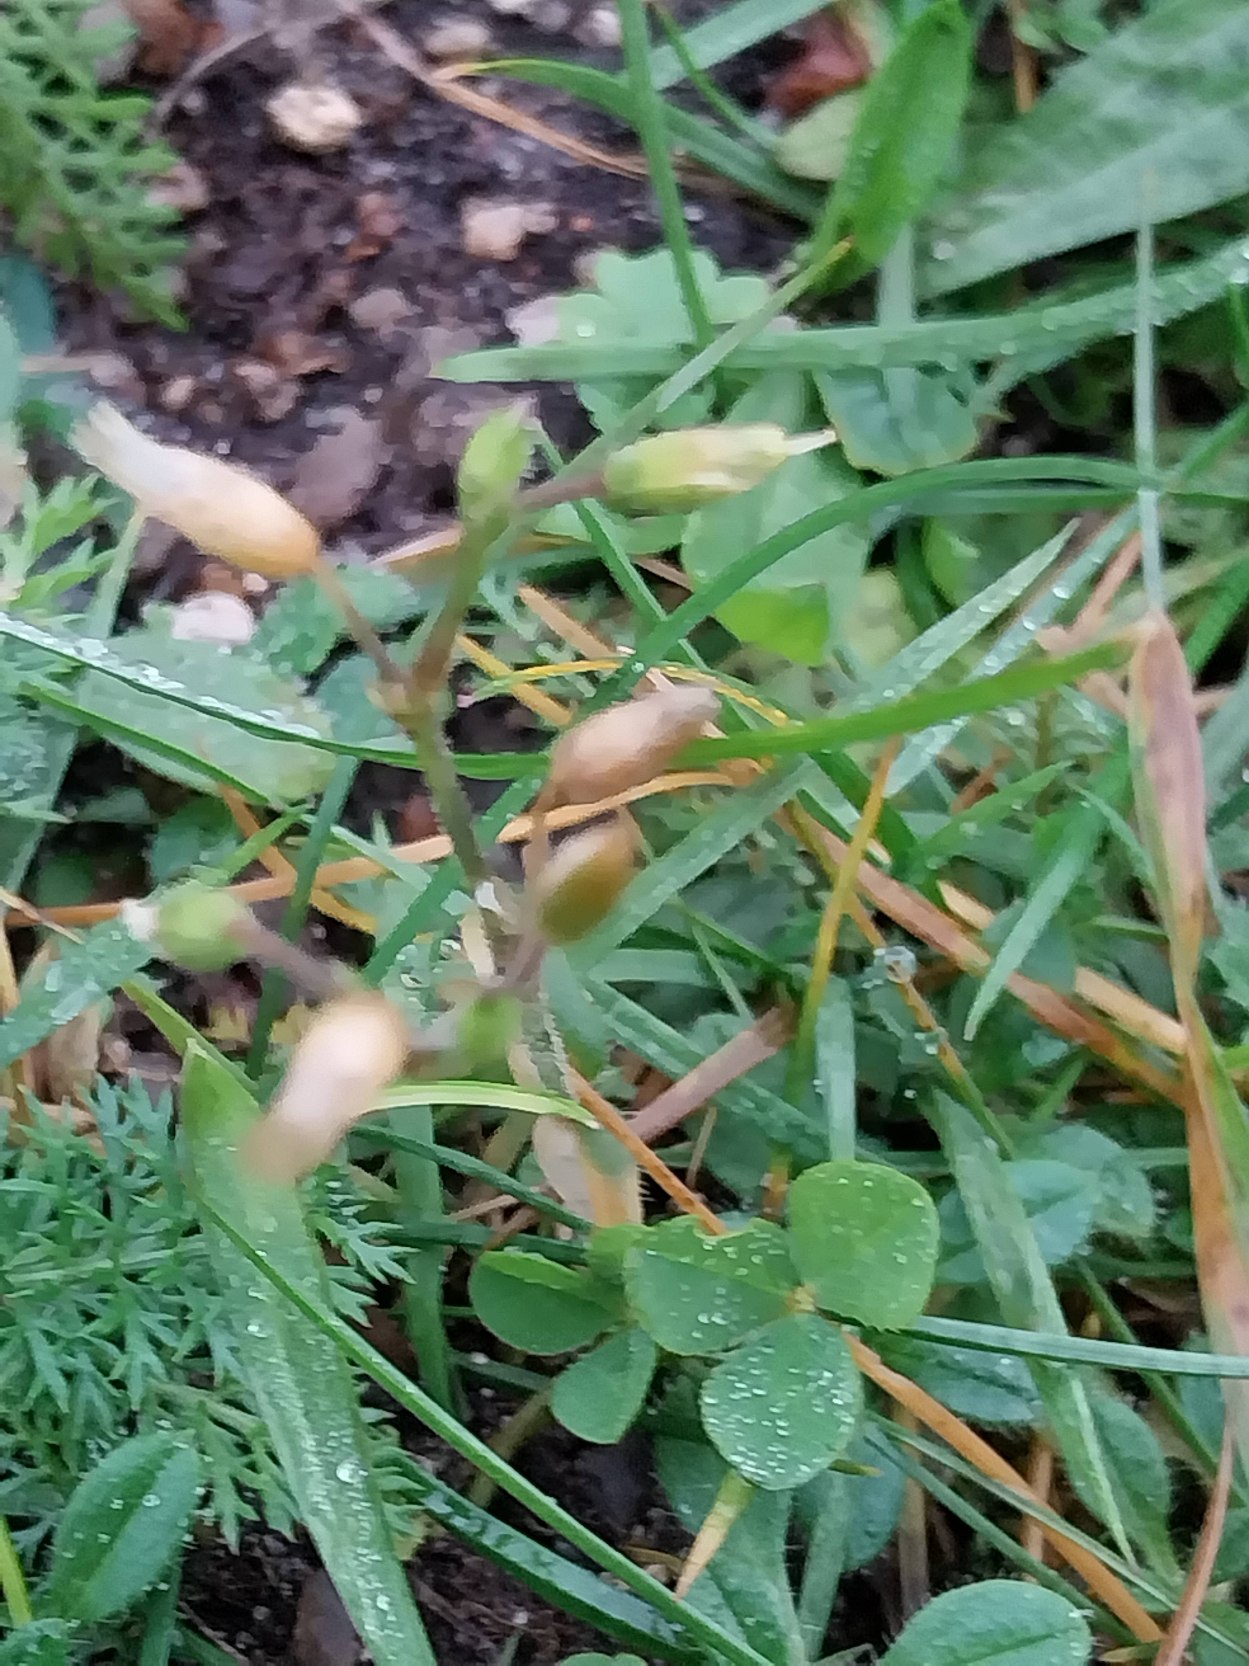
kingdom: Plantae
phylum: Tracheophyta
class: Magnoliopsida
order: Caryophyllales
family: Caryophyllaceae
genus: Cerastium
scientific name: Cerastium fontanum
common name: Almindelig hønsetarm
